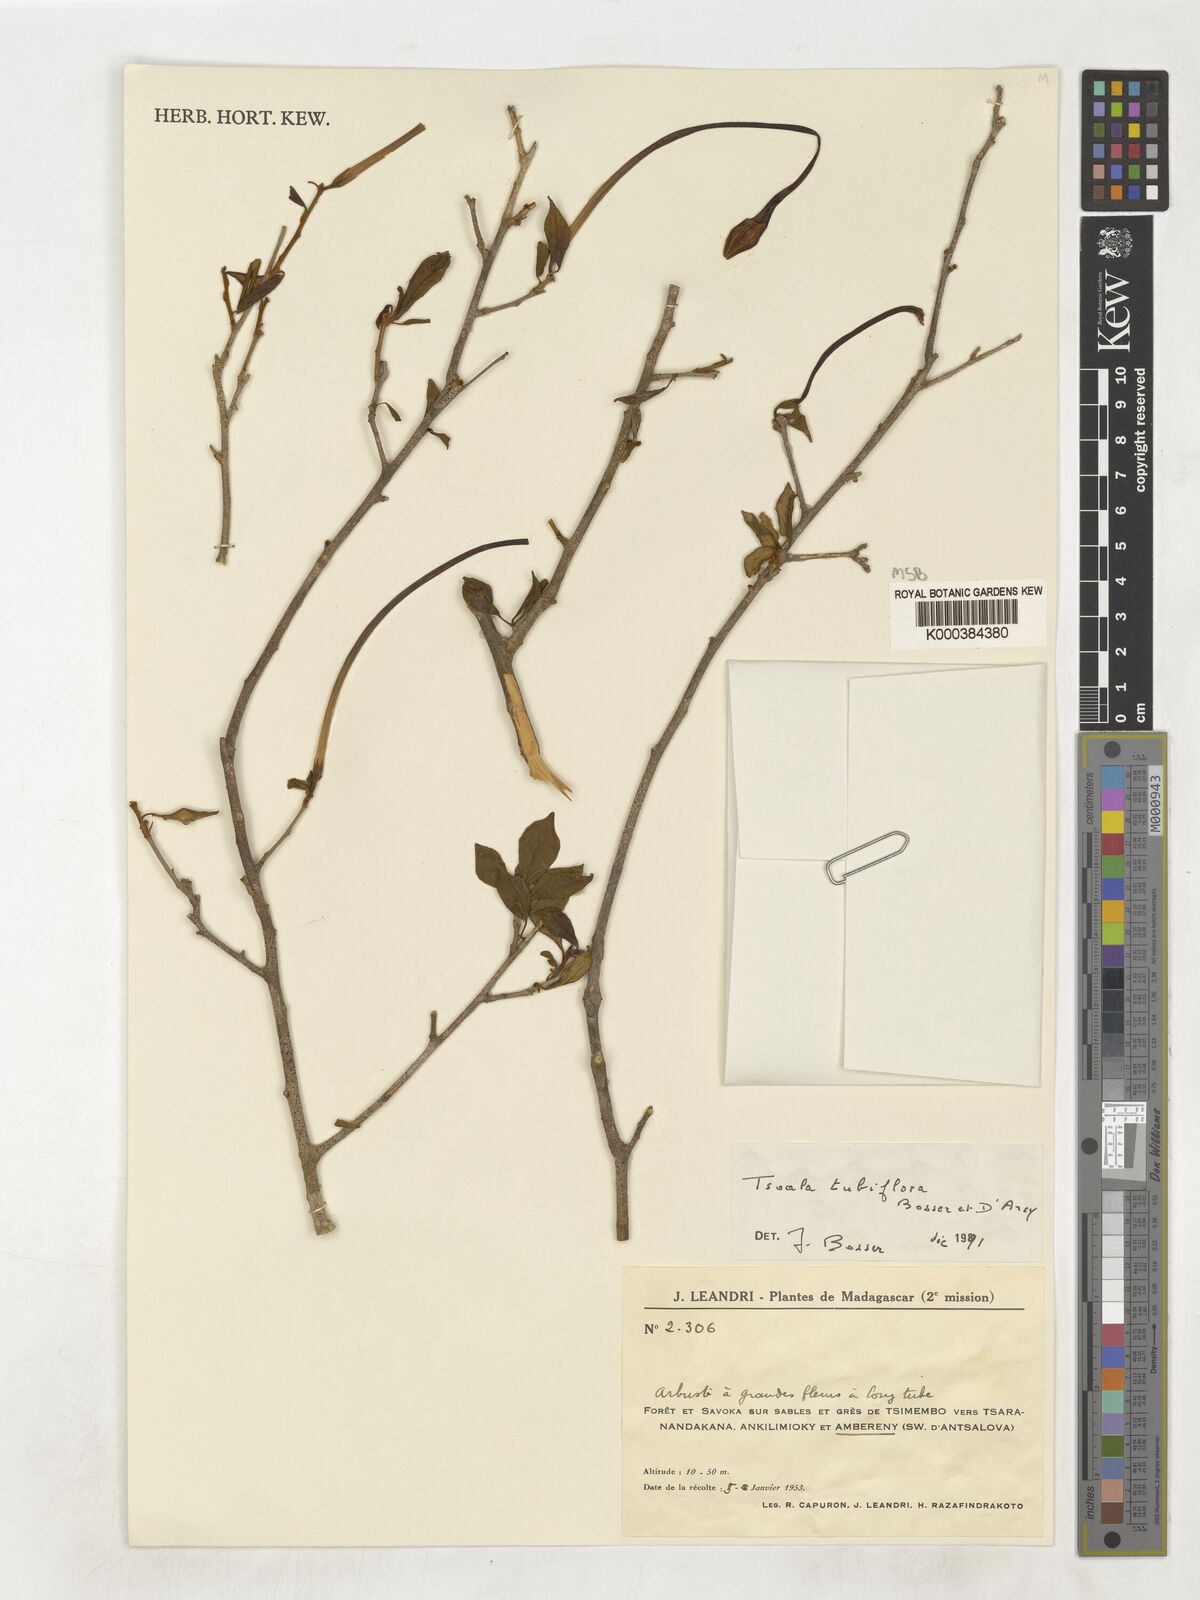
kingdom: Plantae
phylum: Tracheophyta
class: Magnoliopsida
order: Solanales
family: Solanaceae
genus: Tsoala
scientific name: Tsoala tubiflora
